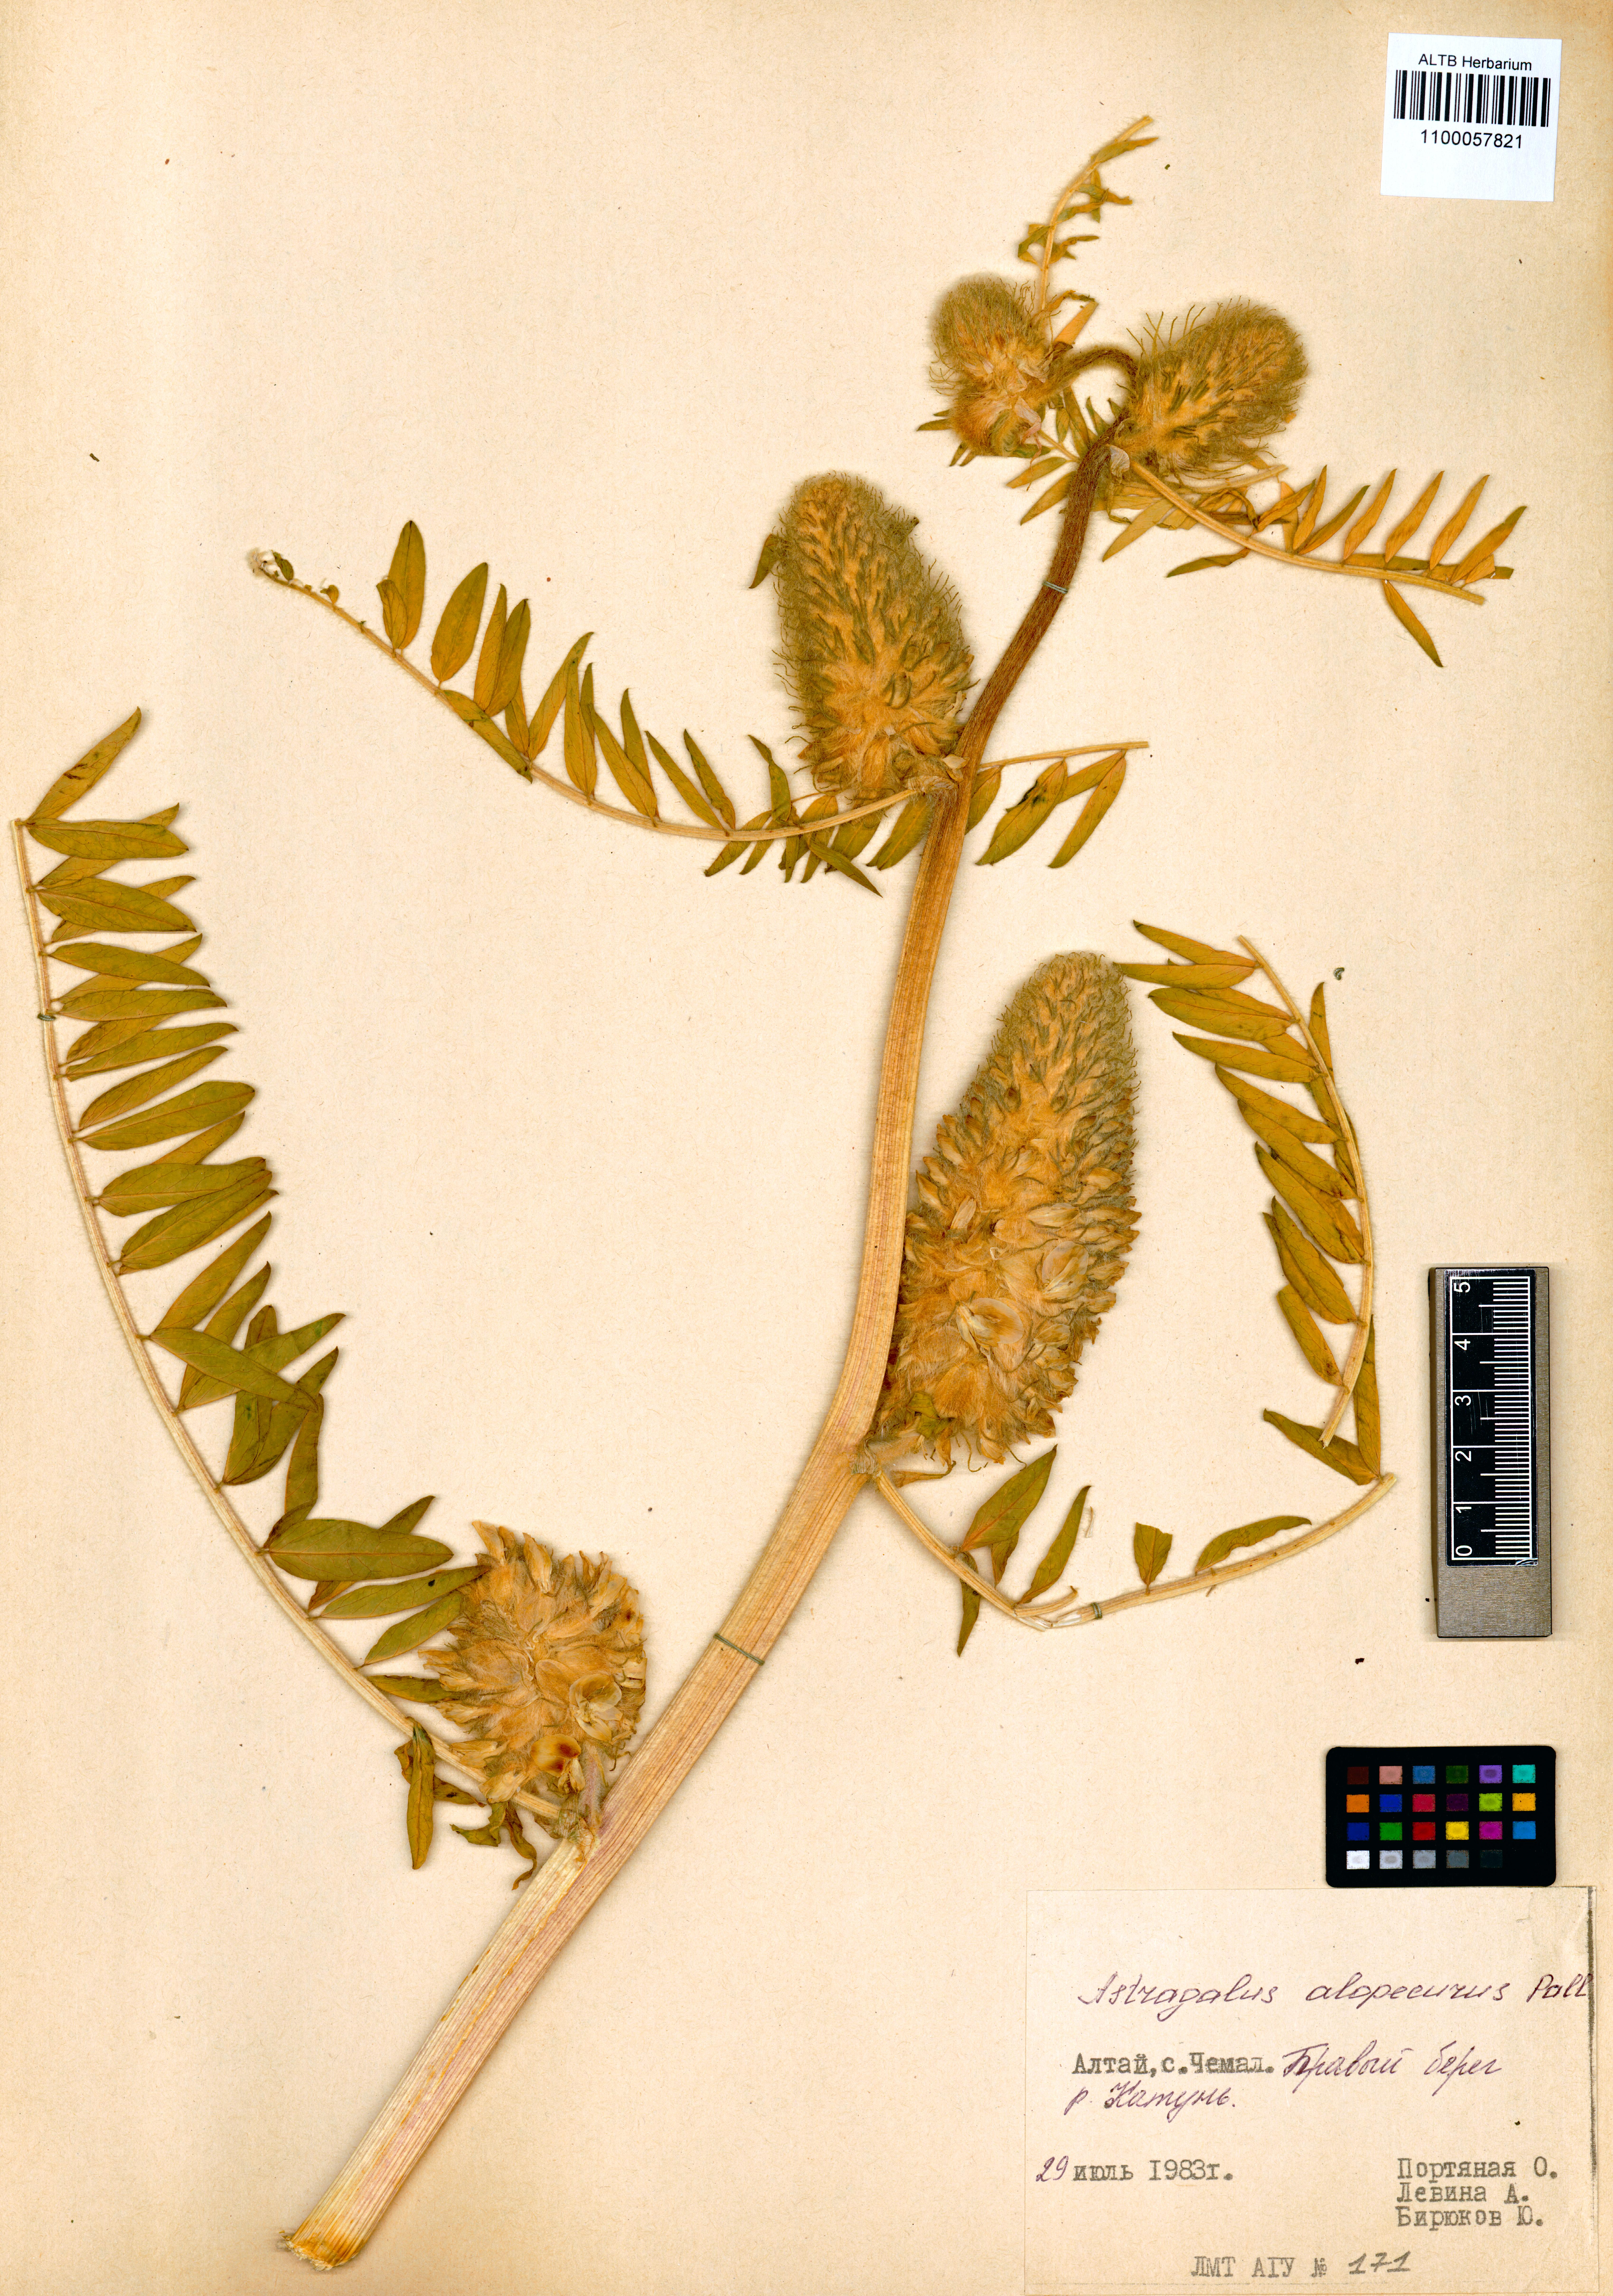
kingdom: Plantae
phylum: Tracheophyta
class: Magnoliopsida
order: Fabales
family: Fabaceae
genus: Astragalus
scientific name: Astragalus alopecurus
